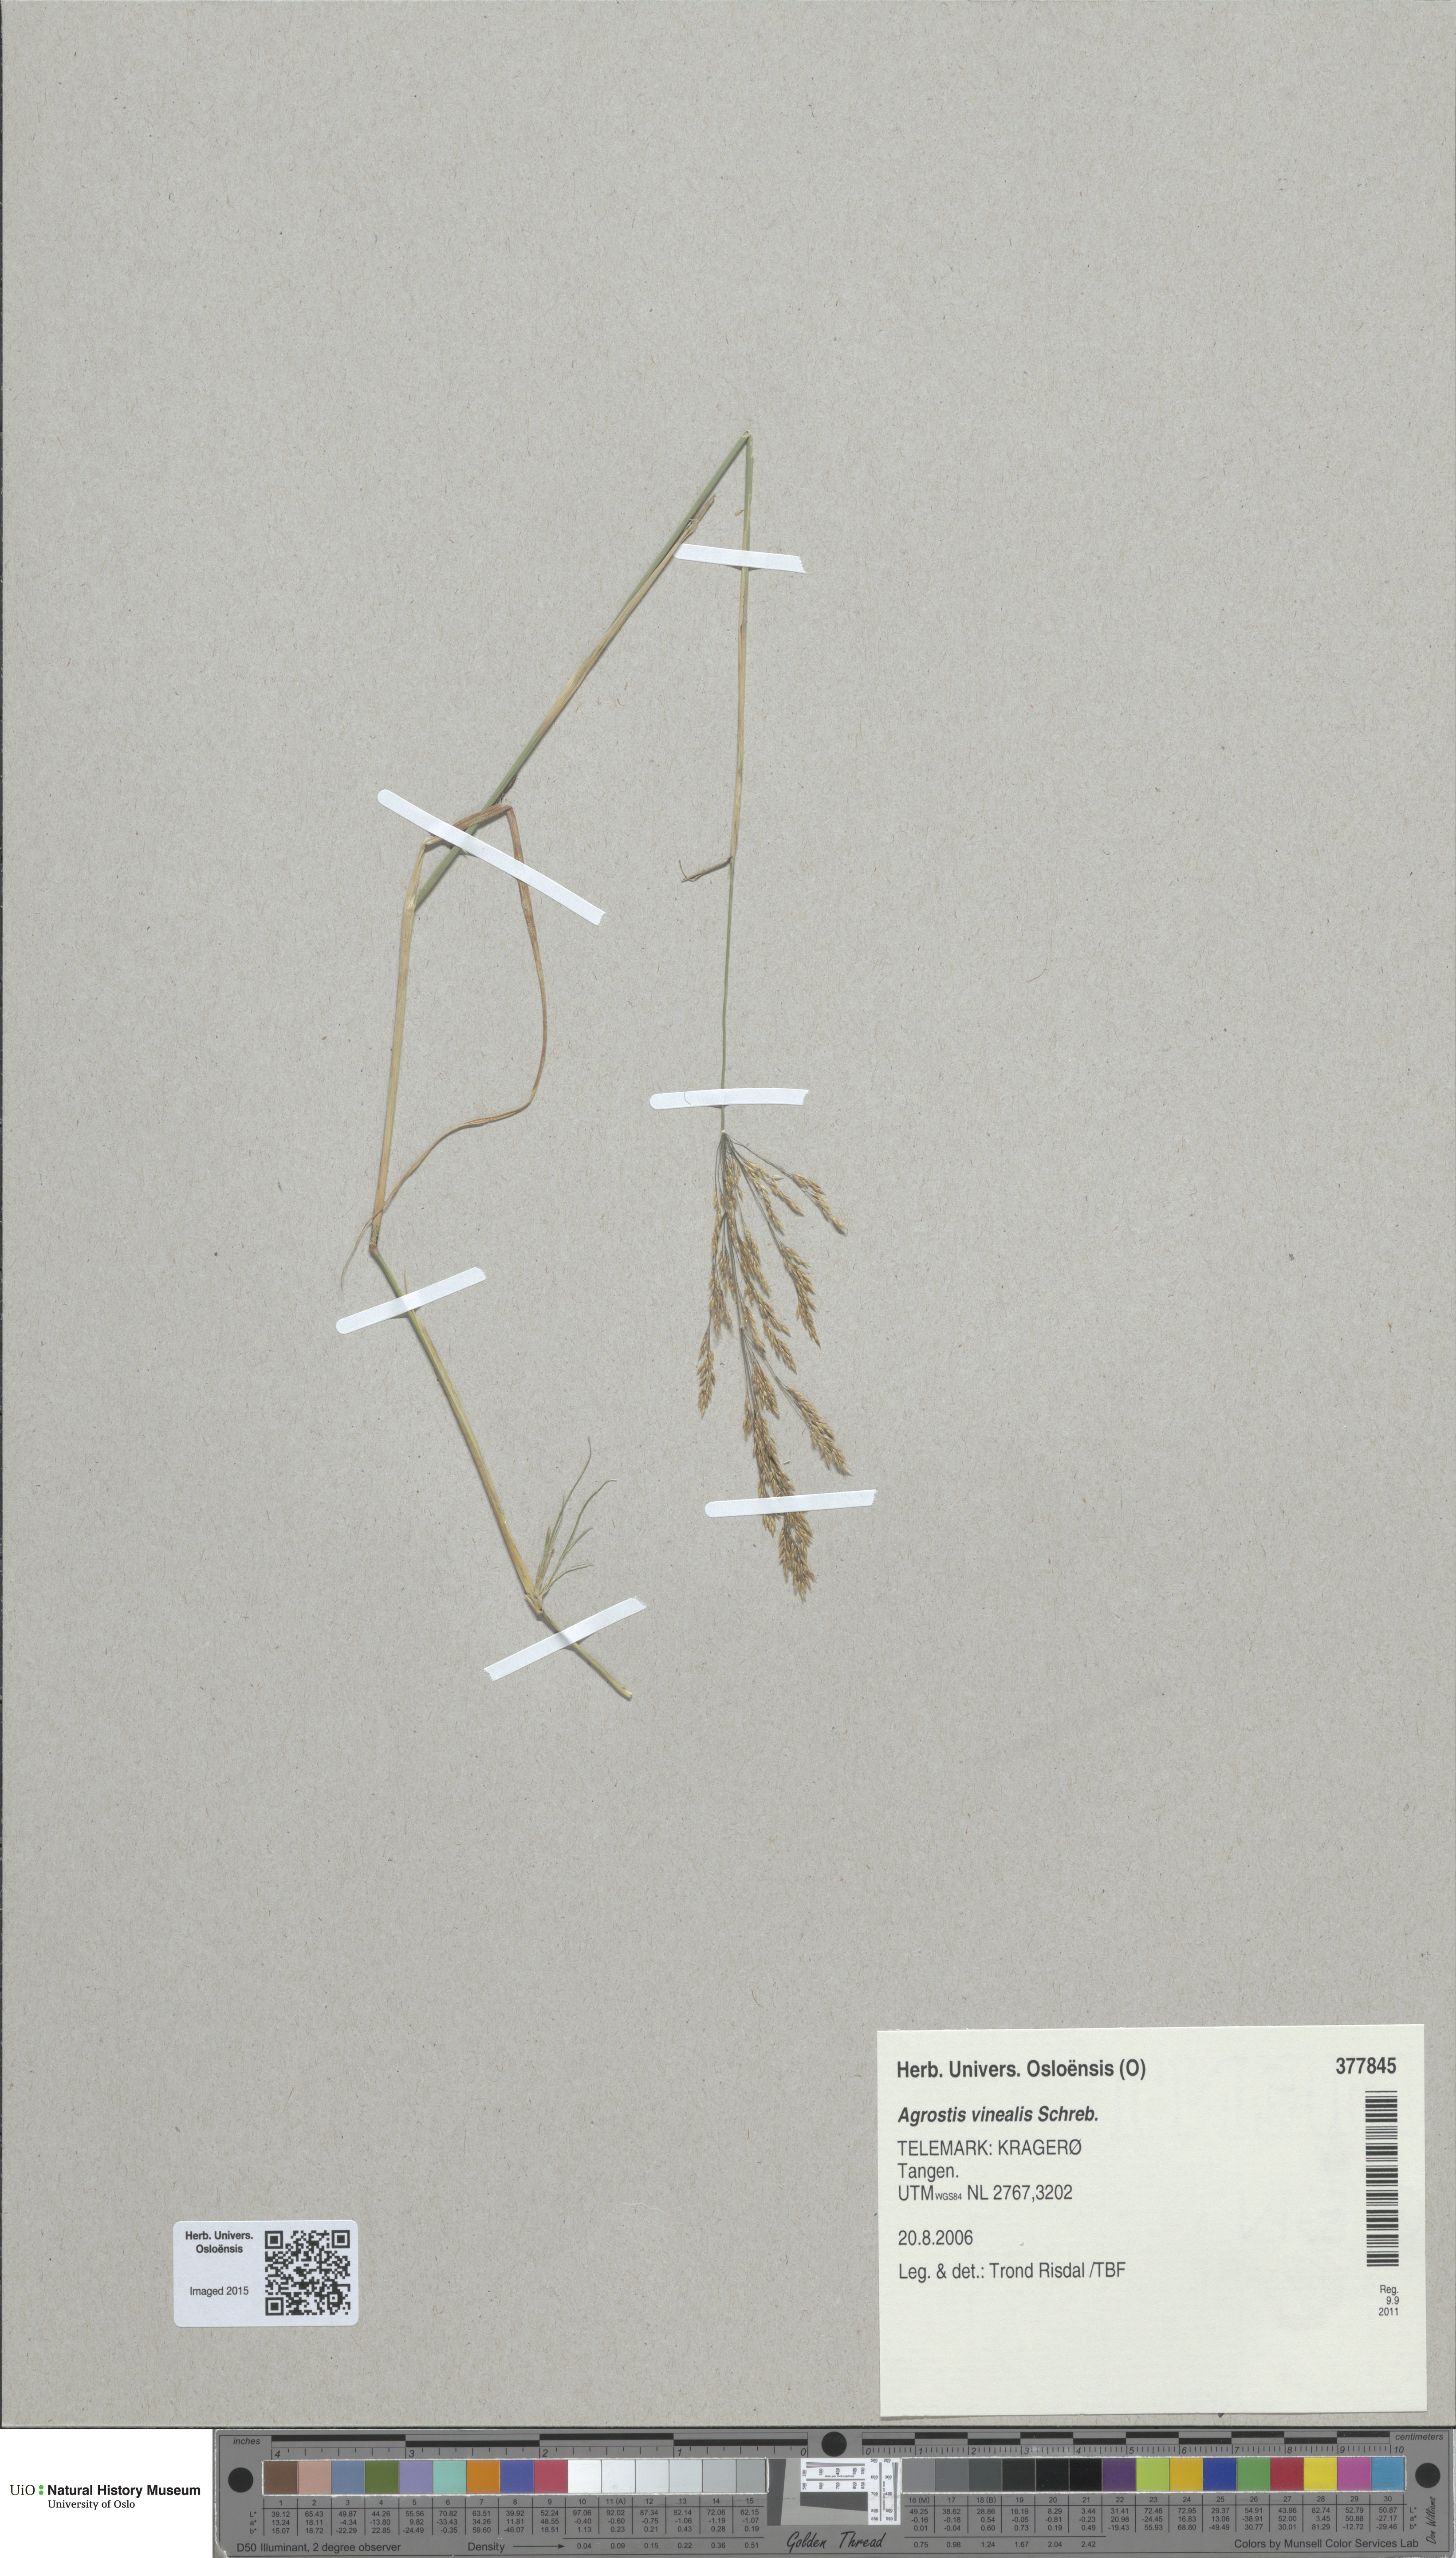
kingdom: Plantae
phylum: Tracheophyta
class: Liliopsida
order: Poales
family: Poaceae
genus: Agrostis
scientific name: Agrostis vinealis
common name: Brown bent
